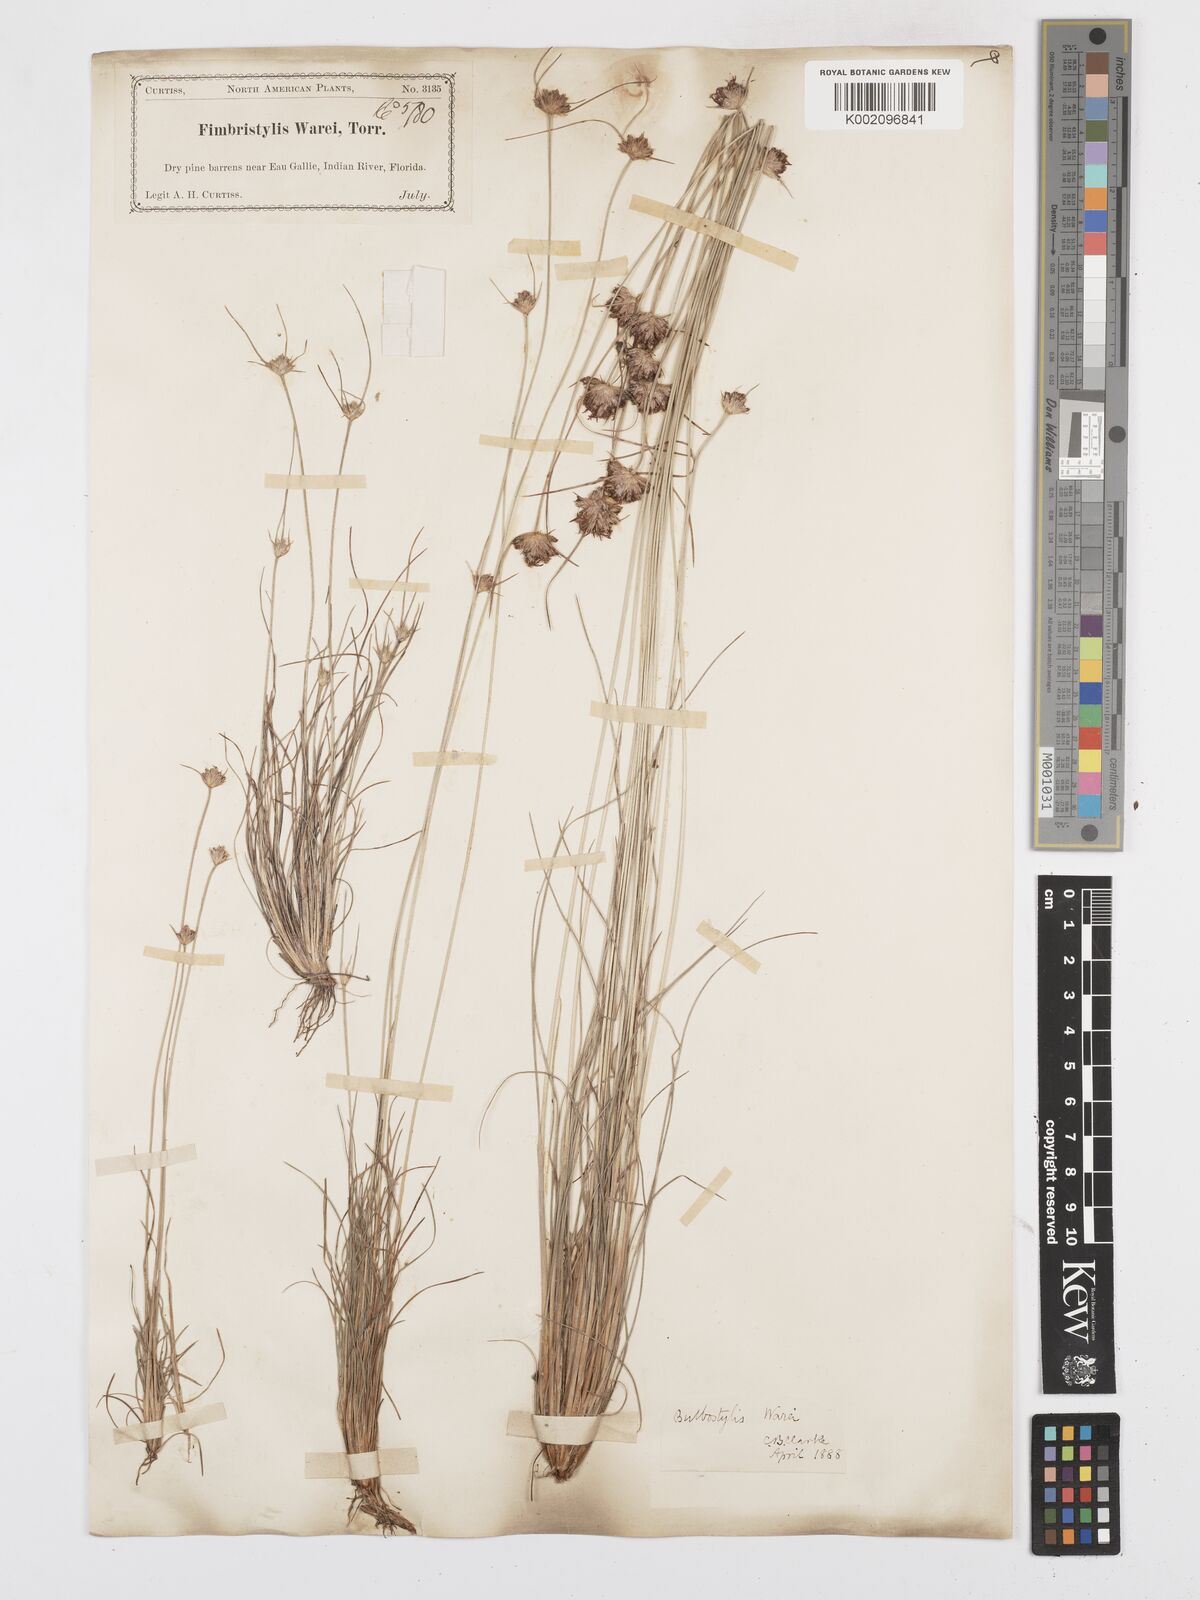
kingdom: Plantae
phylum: Tracheophyta
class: Liliopsida
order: Poales
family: Cyperaceae
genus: Bulbostylis
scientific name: Bulbostylis warei
